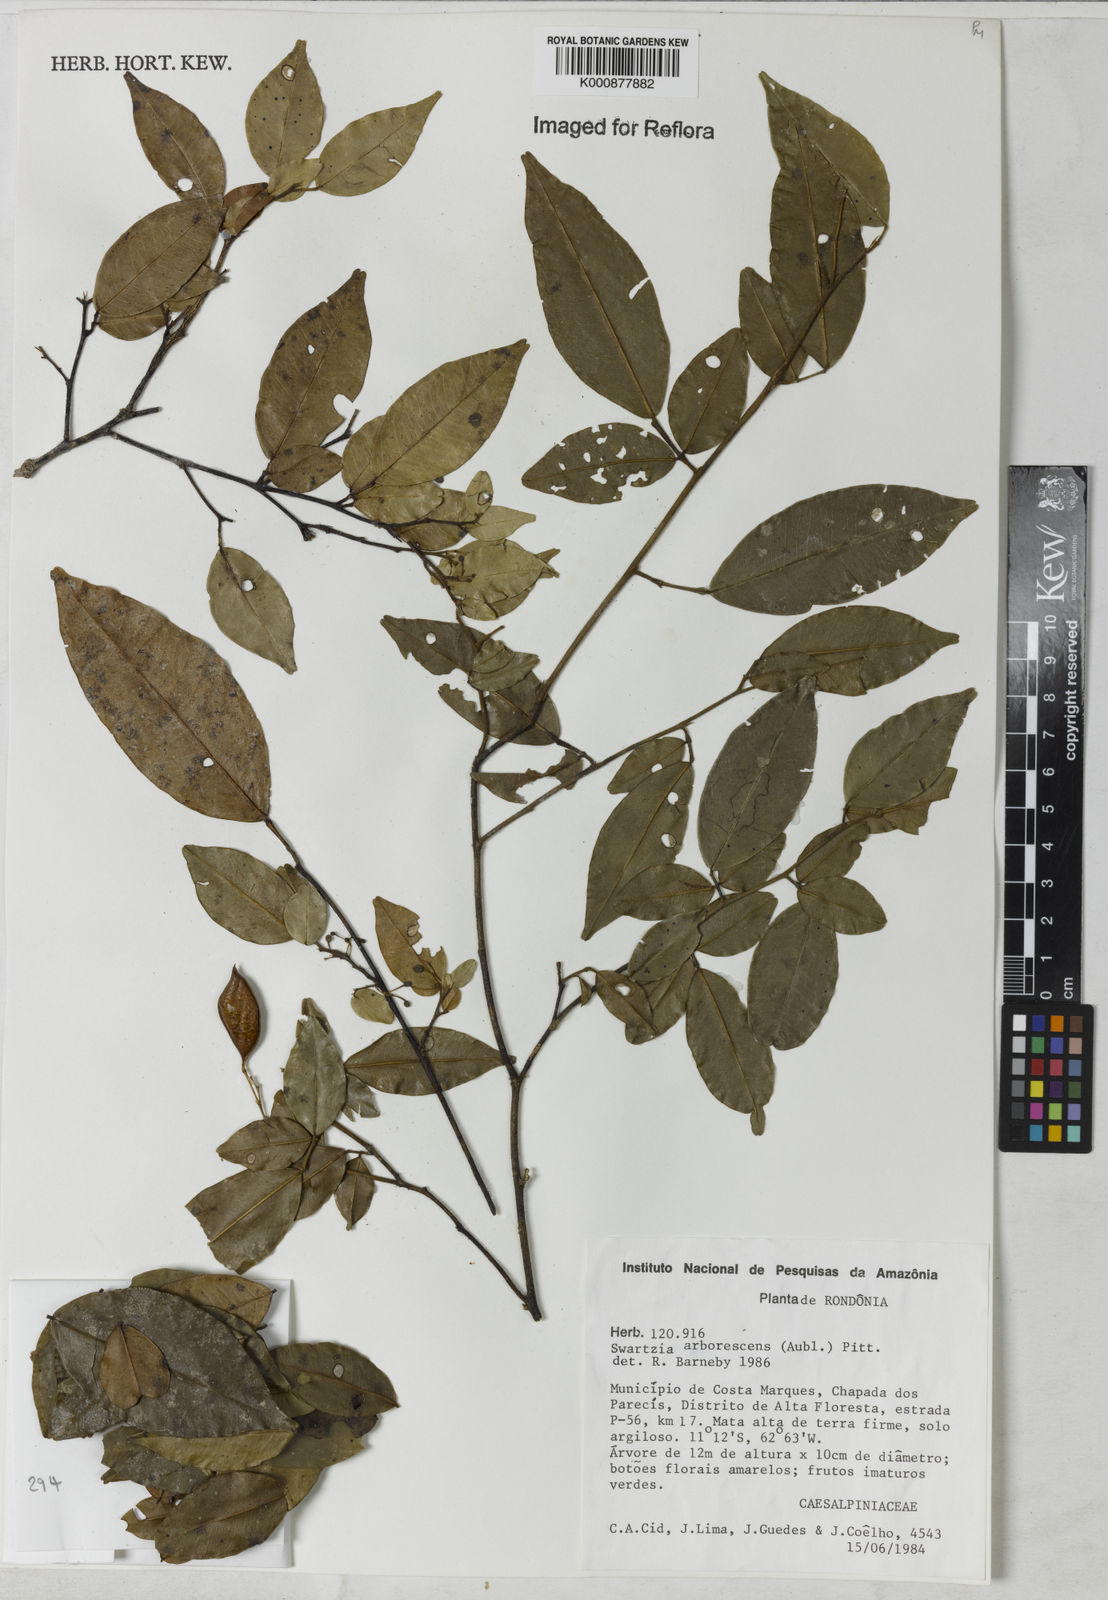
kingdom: Plantae
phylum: Tracheophyta
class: Magnoliopsida
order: Fabales
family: Fabaceae
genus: Swartzia
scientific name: Swartzia arborescens
